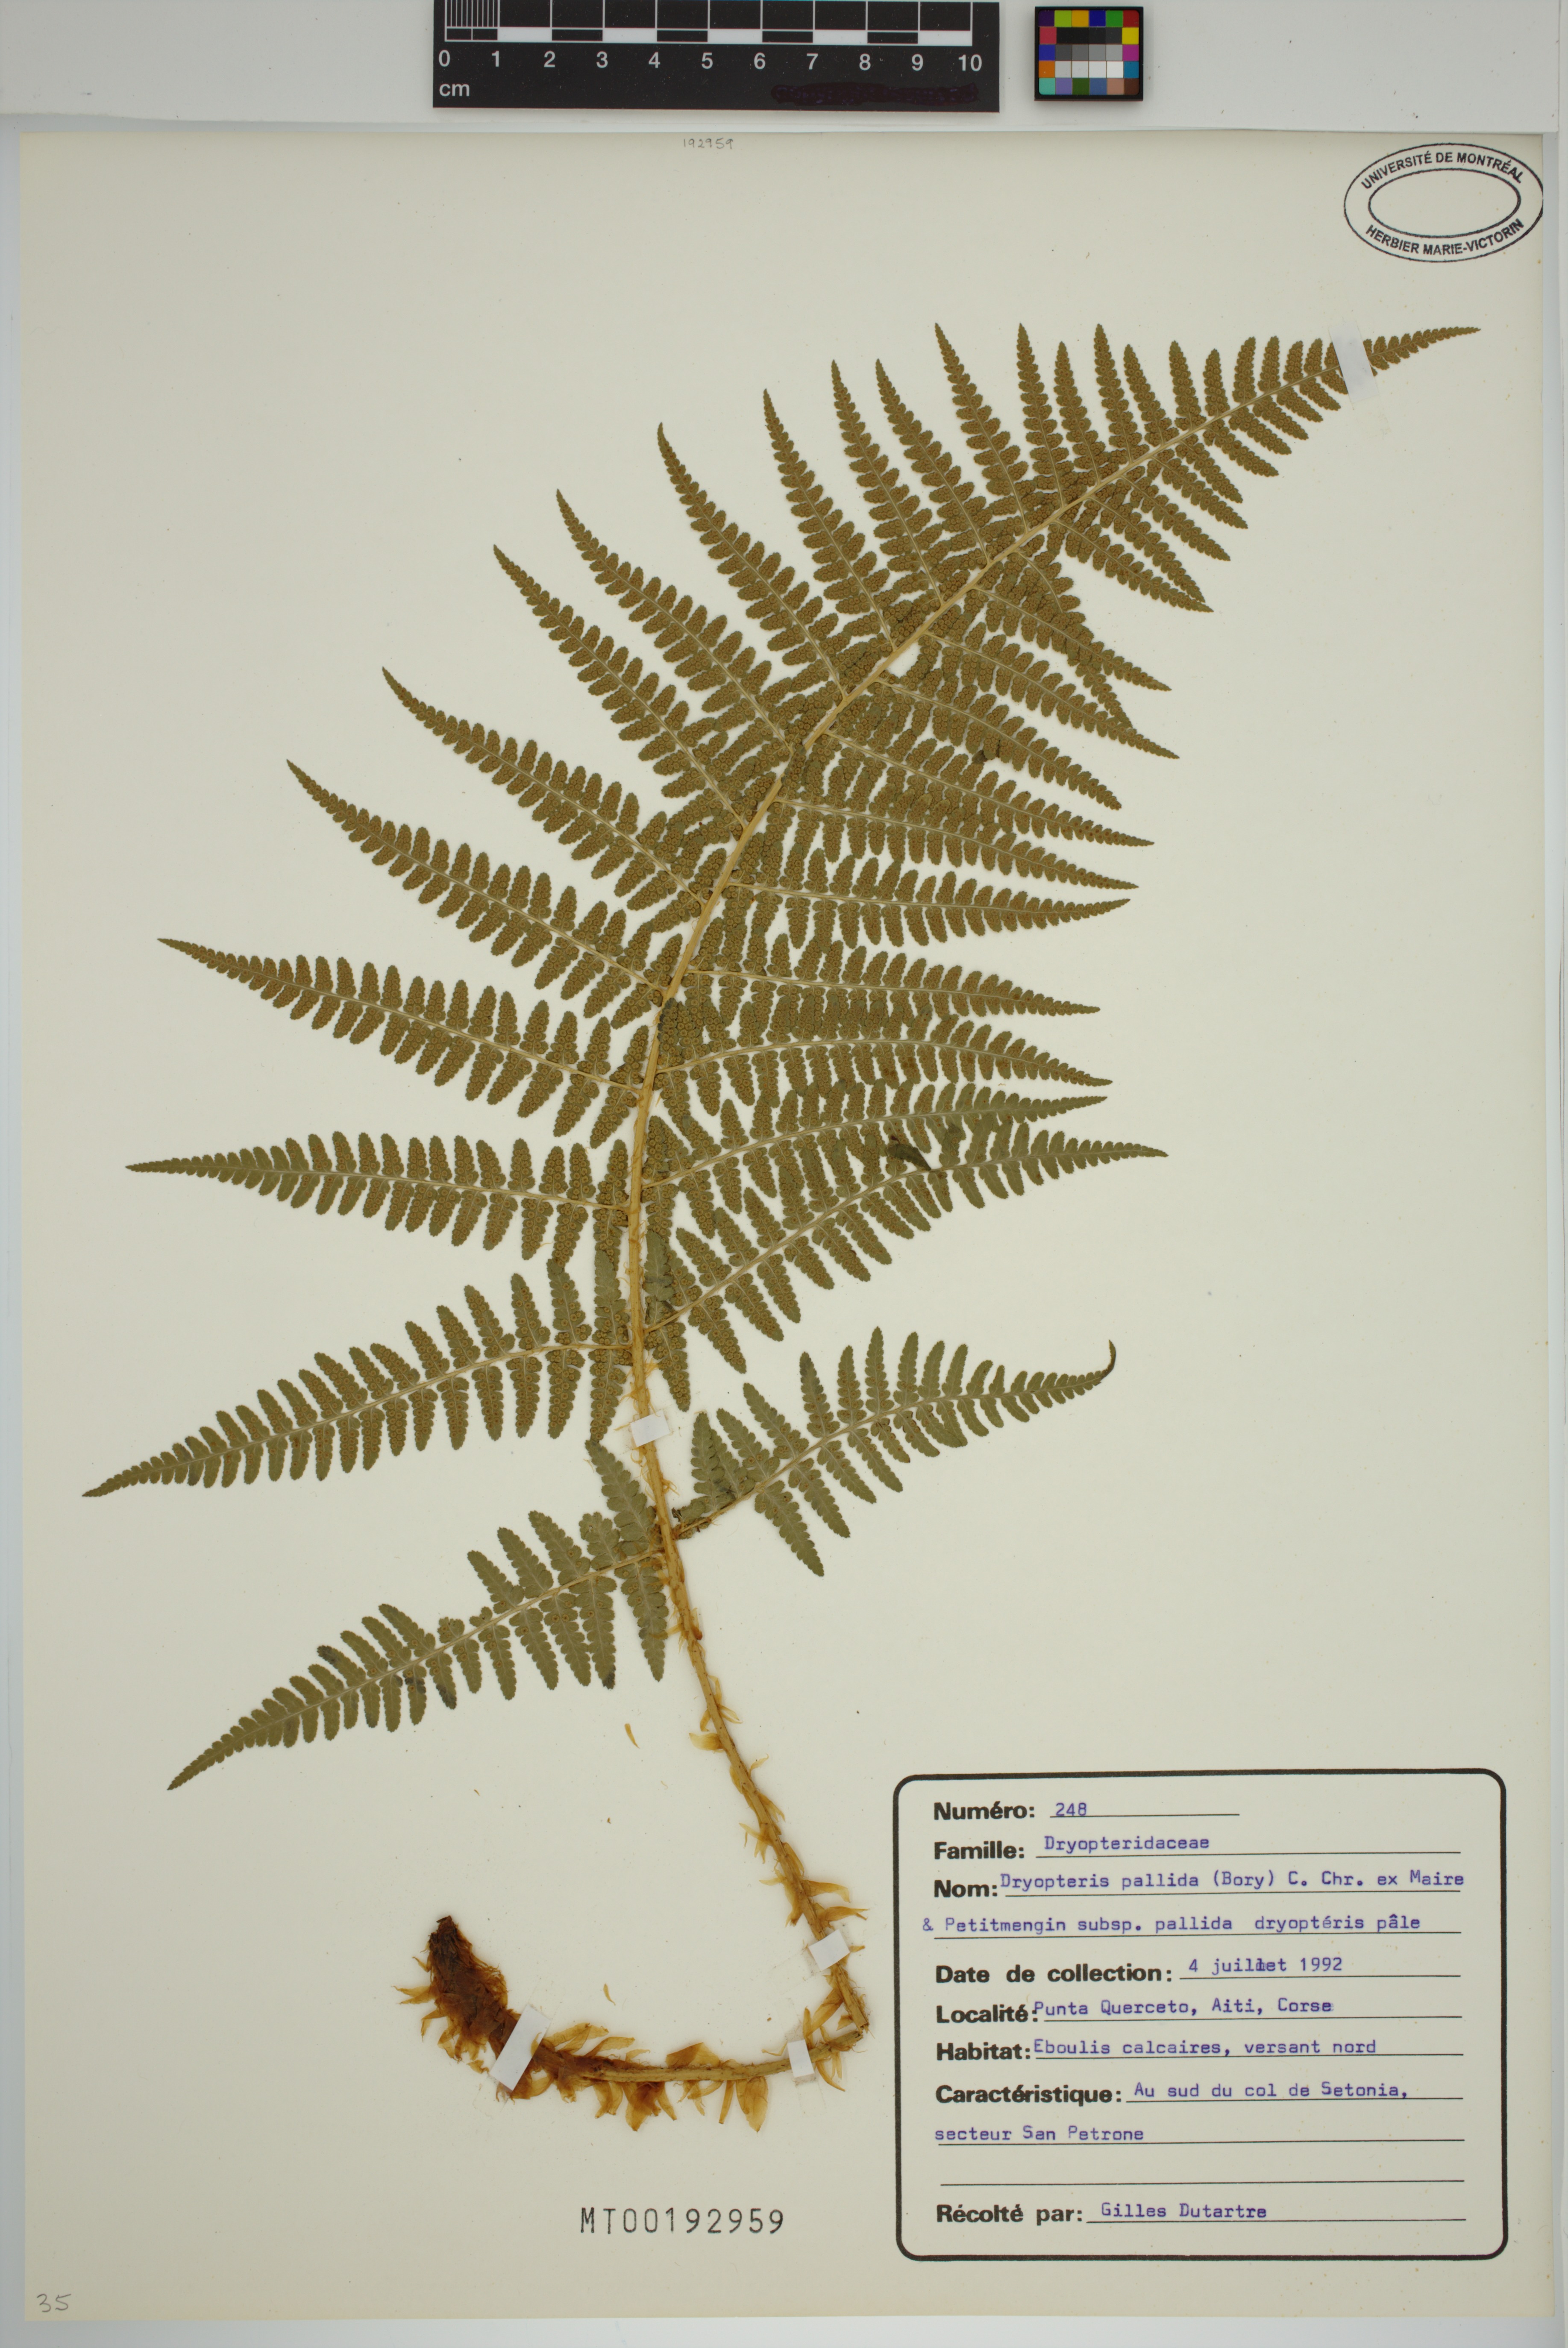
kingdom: Plantae
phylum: Tracheophyta
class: Polypodiopsida
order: Polypodiales
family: Dryopteridaceae
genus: Dryopteris
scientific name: Dryopteris pallida
